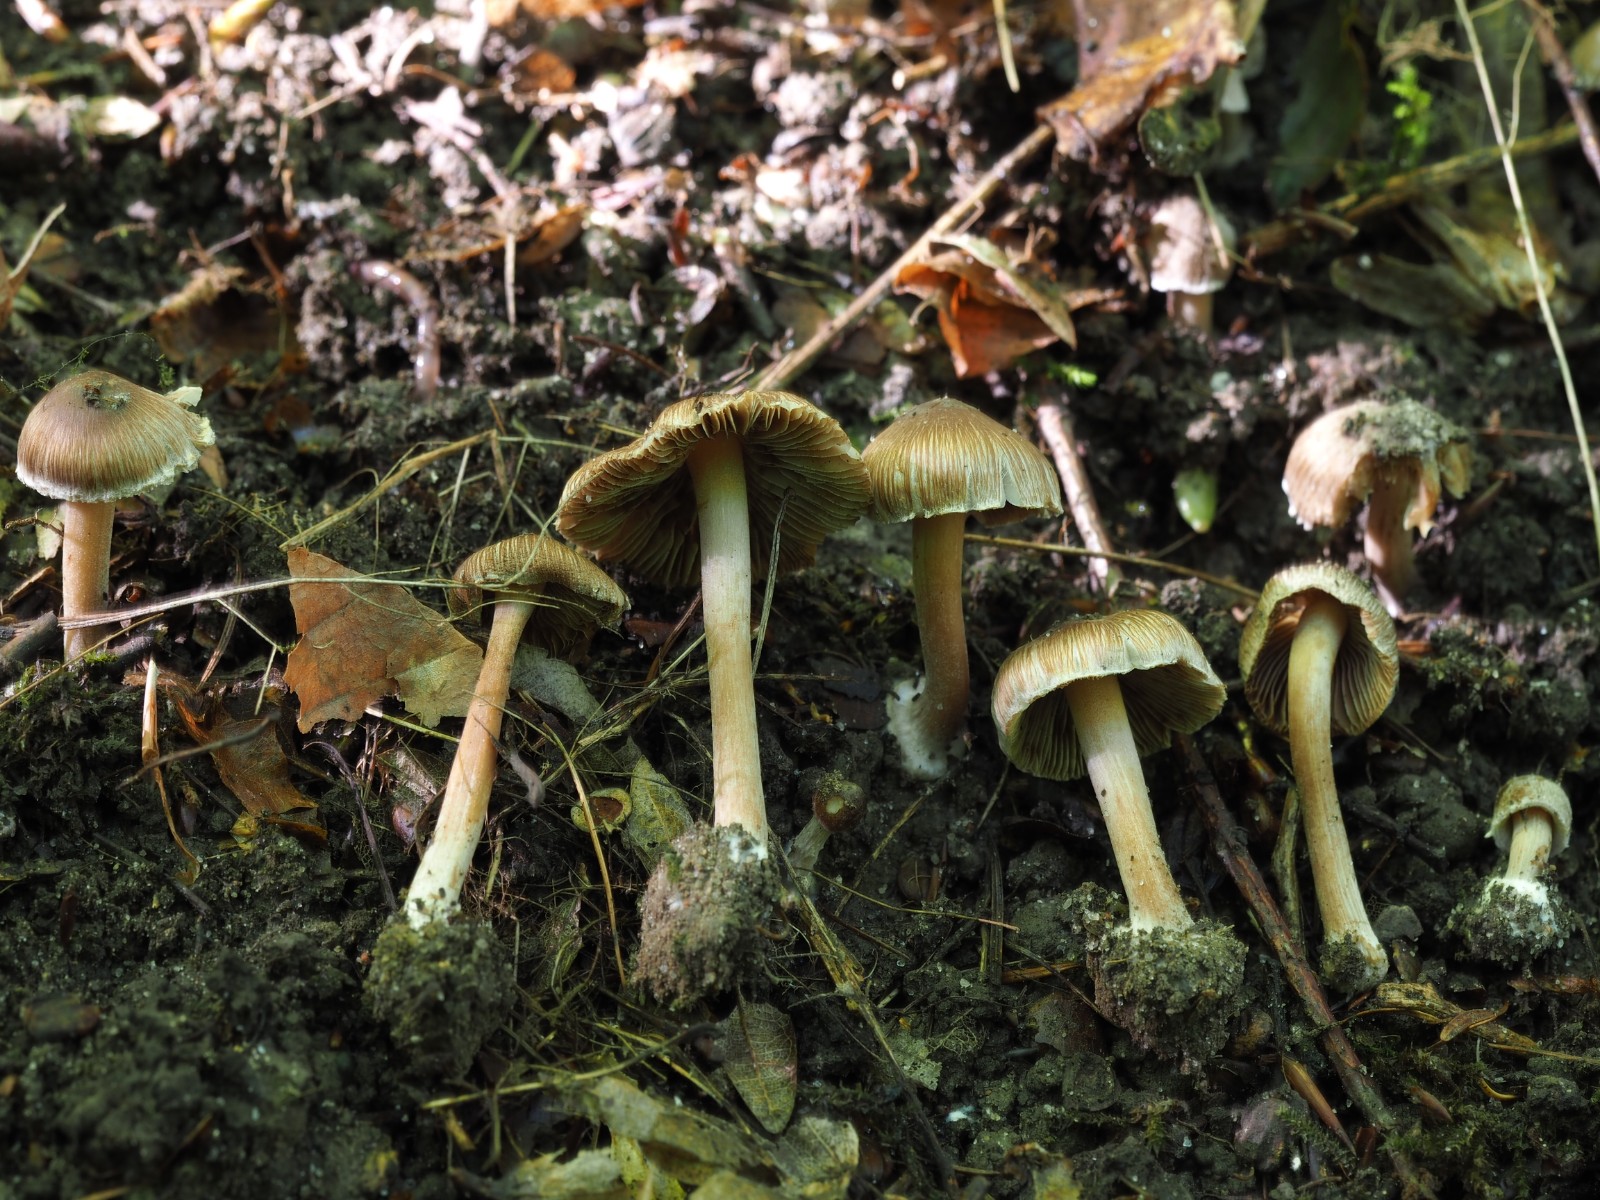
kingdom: Fungi
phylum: Basidiomycota
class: Agaricomycetes
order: Agaricales
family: Inocybaceae
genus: Inocybe
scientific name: Inocybe asterospora
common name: stjernesporet trævlhat
